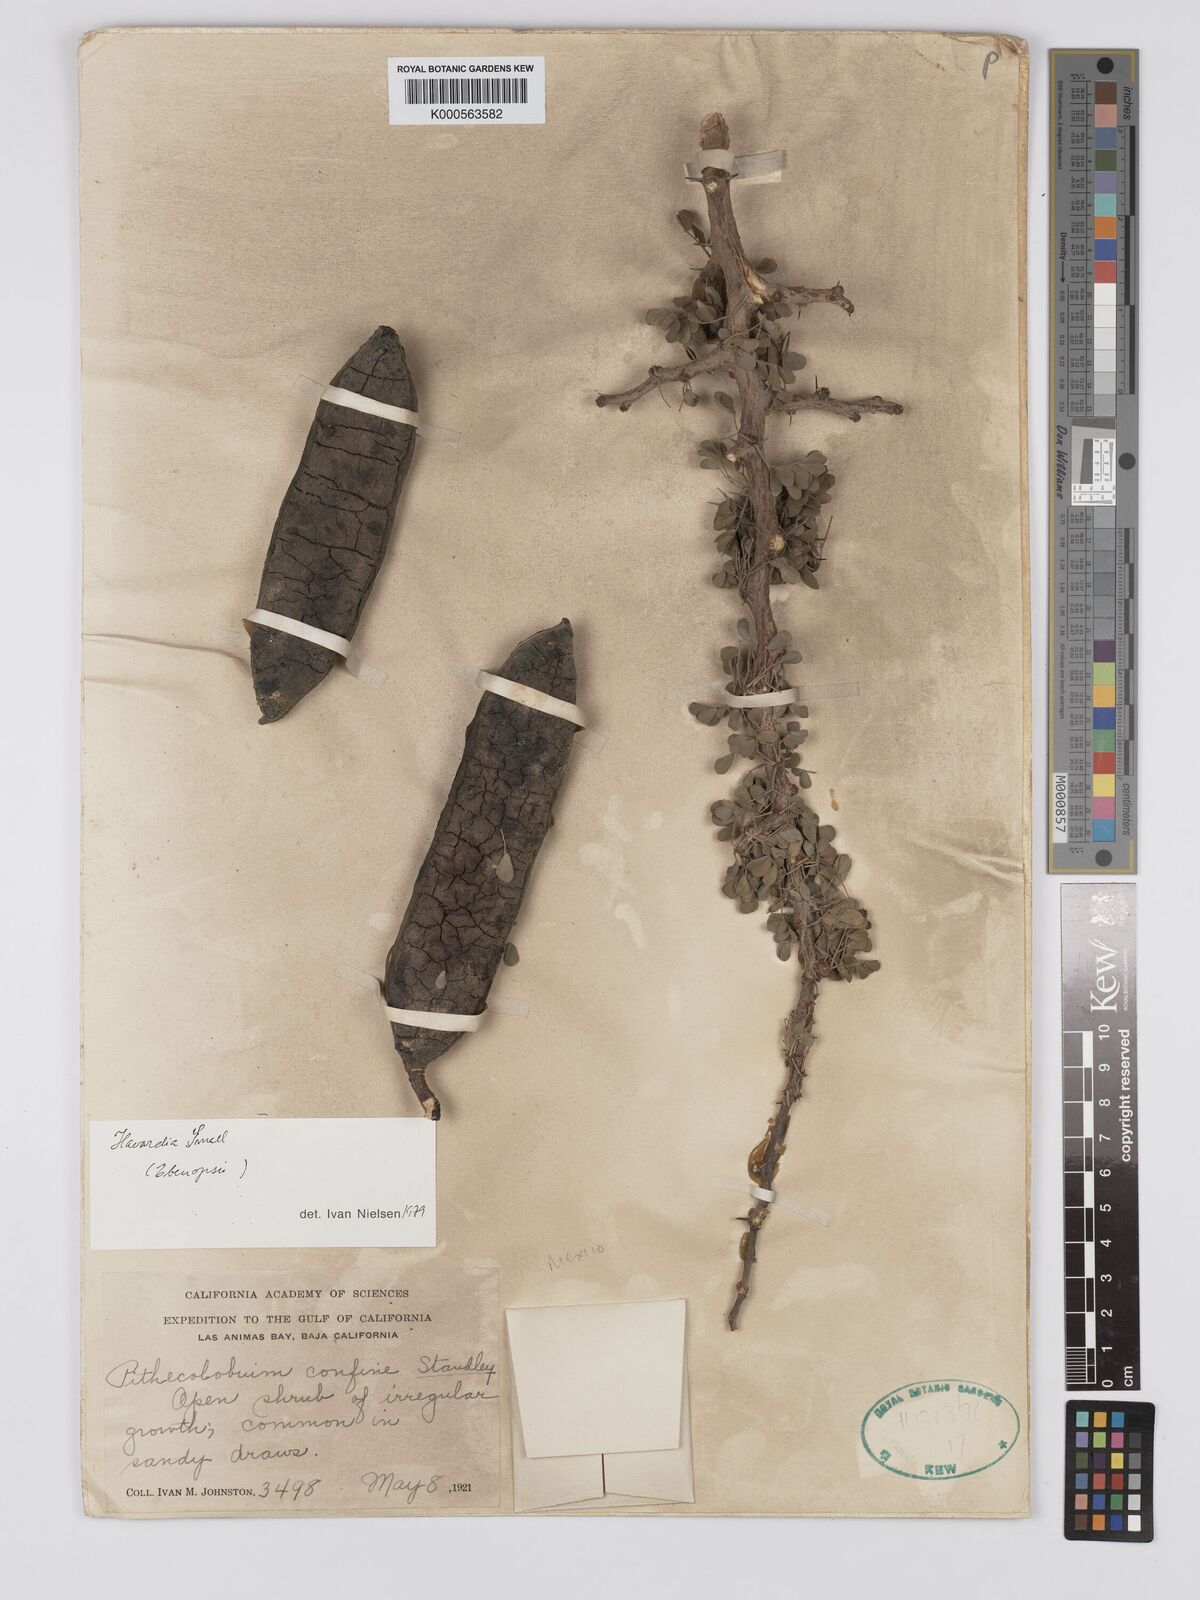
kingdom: Plantae
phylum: Tracheophyta
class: Magnoliopsida
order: Fabales
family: Fabaceae
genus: Chloroleucon
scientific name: Chloroleucon
